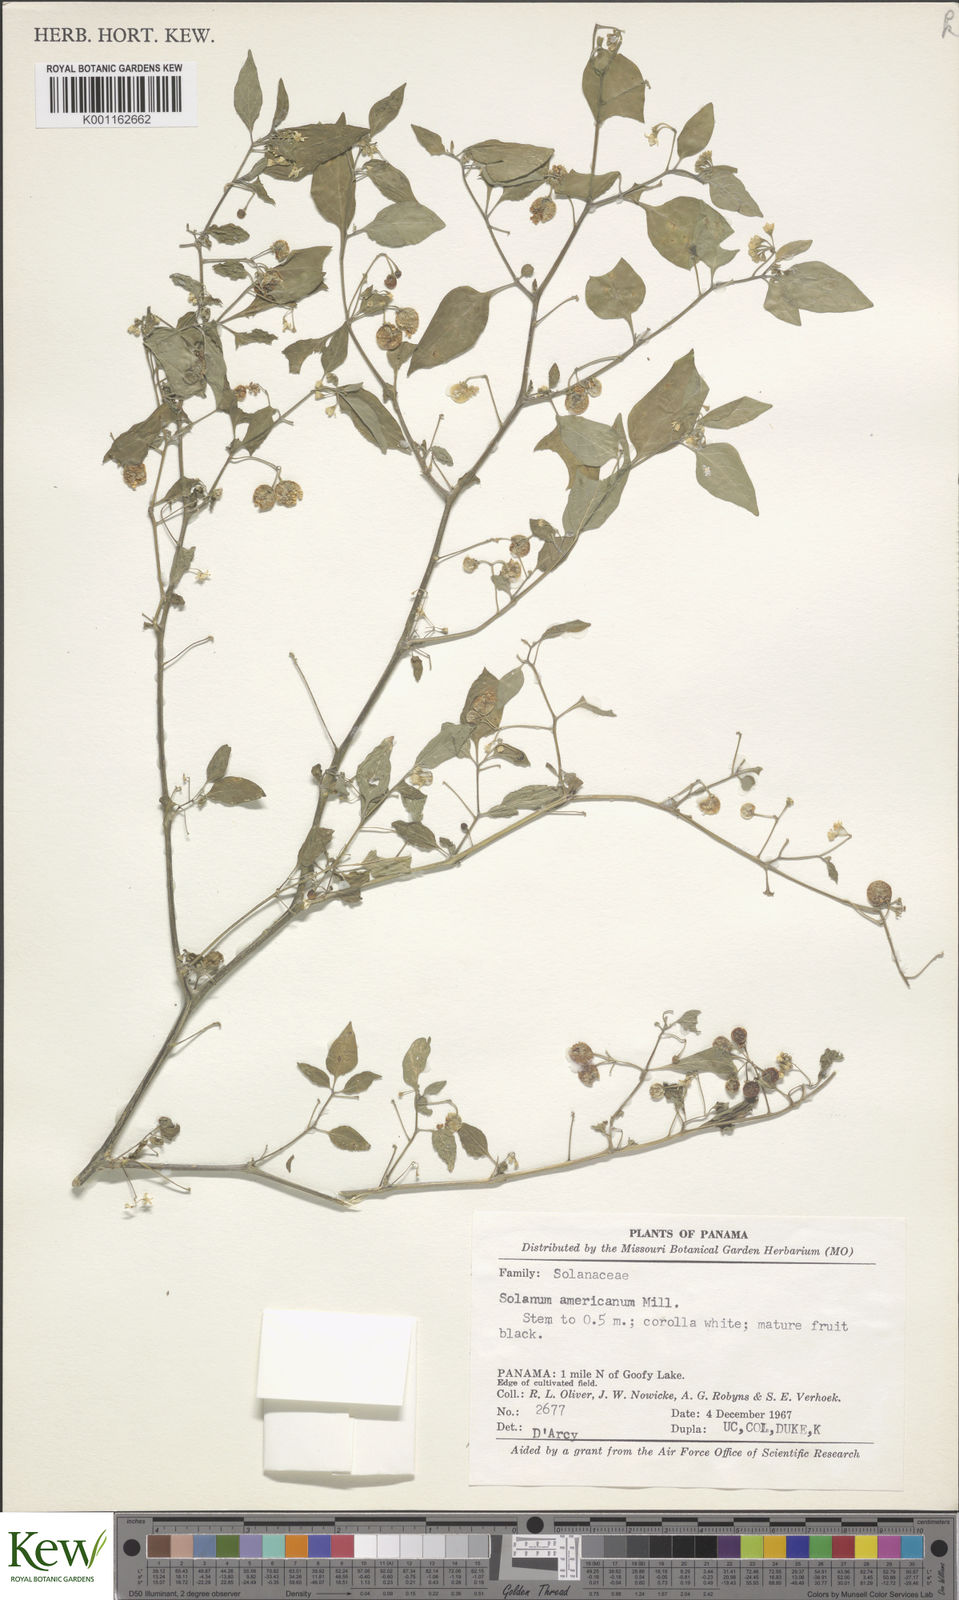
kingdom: Plantae
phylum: Tracheophyta
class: Magnoliopsida
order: Solanales
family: Solanaceae
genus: Solanum
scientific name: Solanum americanum
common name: American black nightshade
